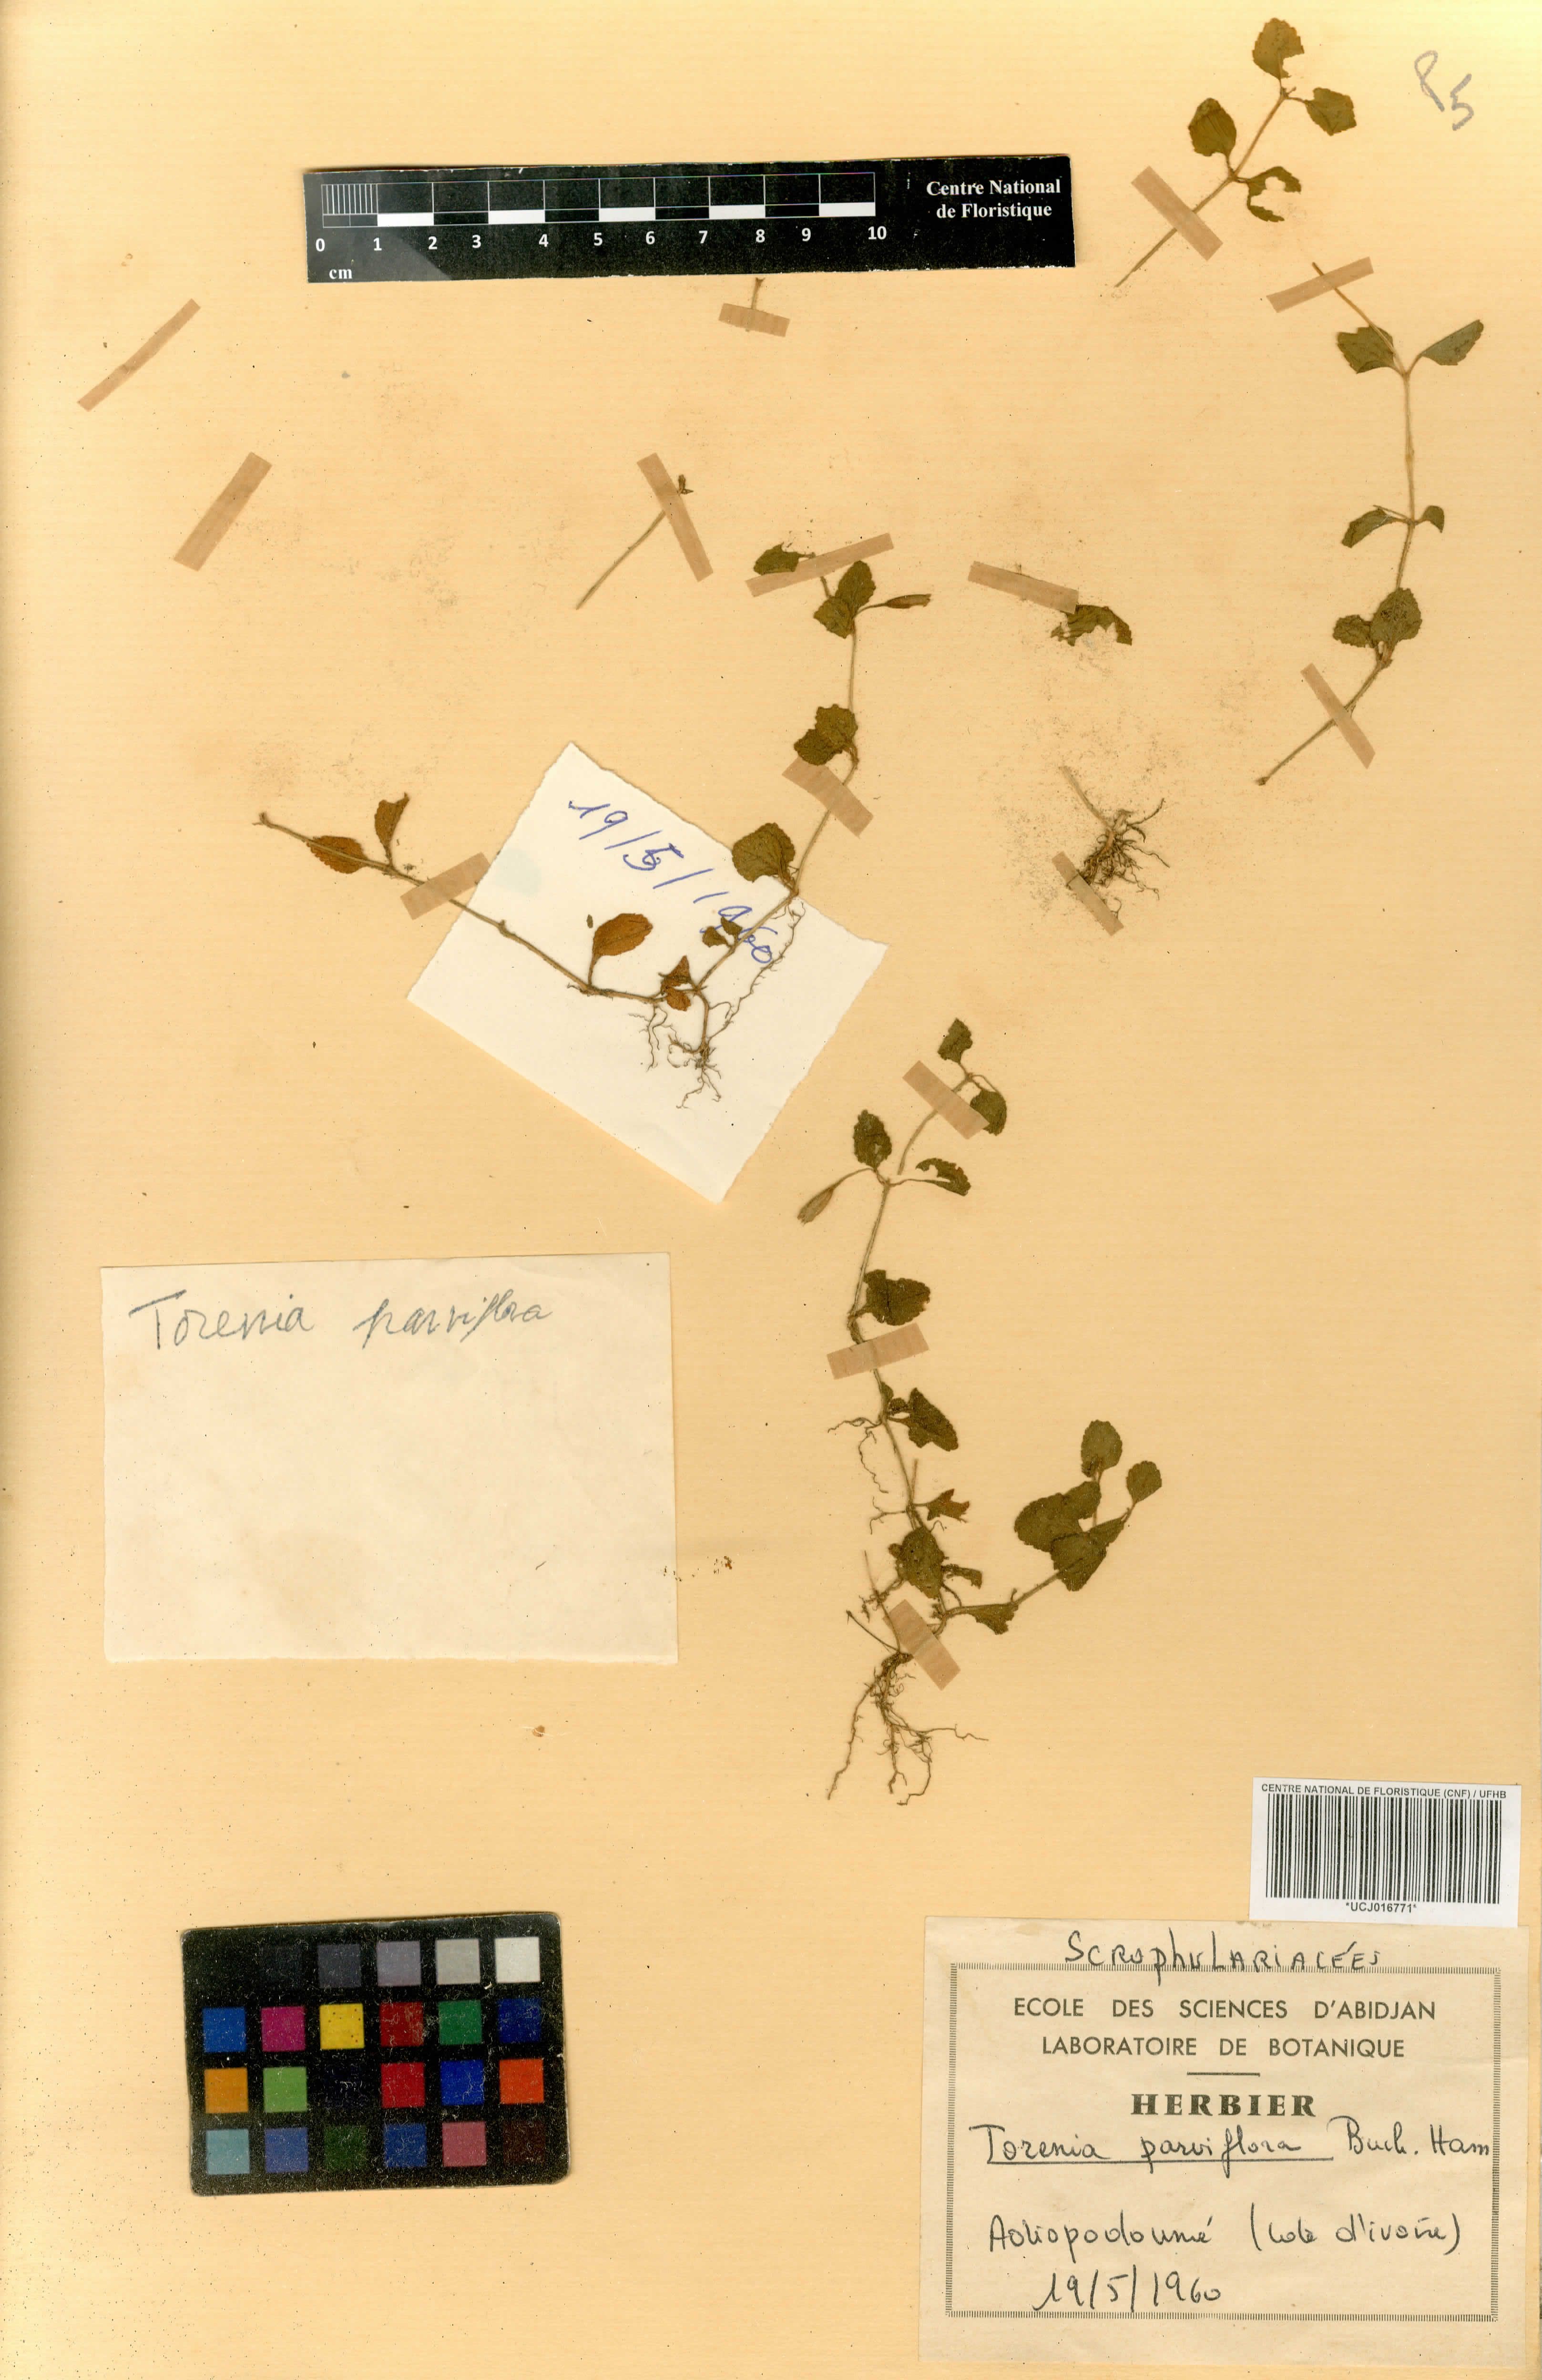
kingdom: Plantae
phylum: Tracheophyta
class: Magnoliopsida
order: Lamiales
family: Linderniaceae
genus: Torenia
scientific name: Torenia thouarsii
